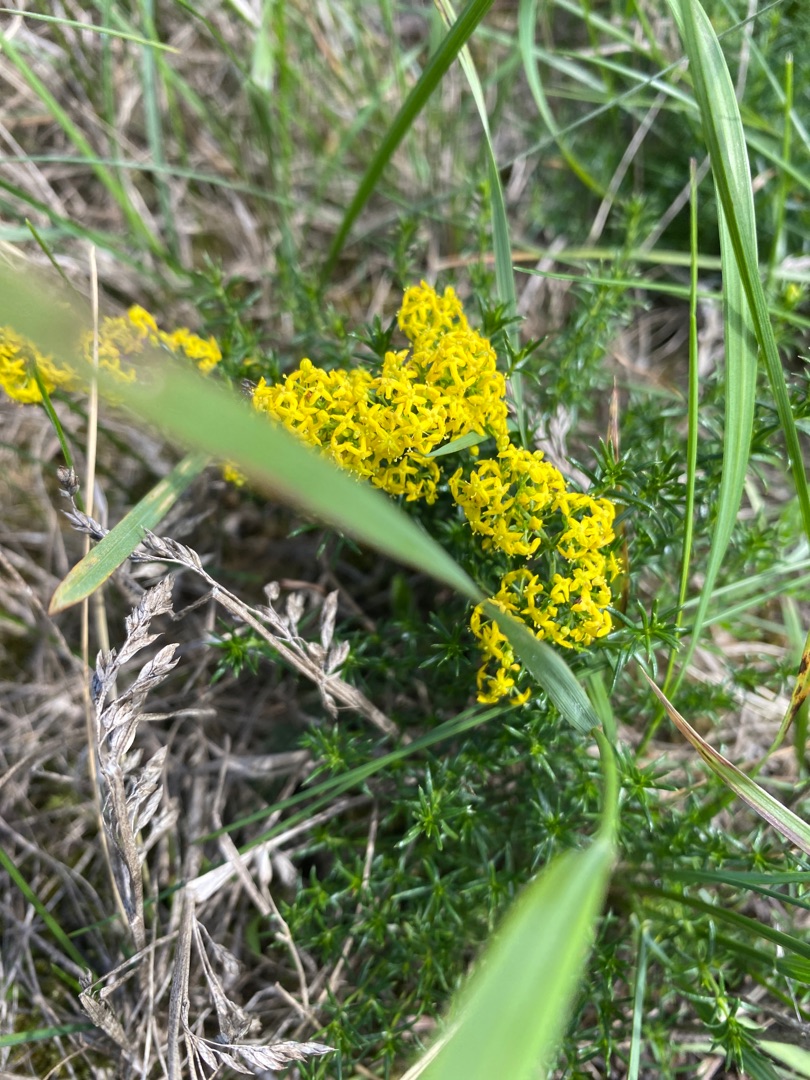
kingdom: Plantae
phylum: Tracheophyta
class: Magnoliopsida
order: Gentianales
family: Rubiaceae
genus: Galium
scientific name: Galium verum
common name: Gul snerre
